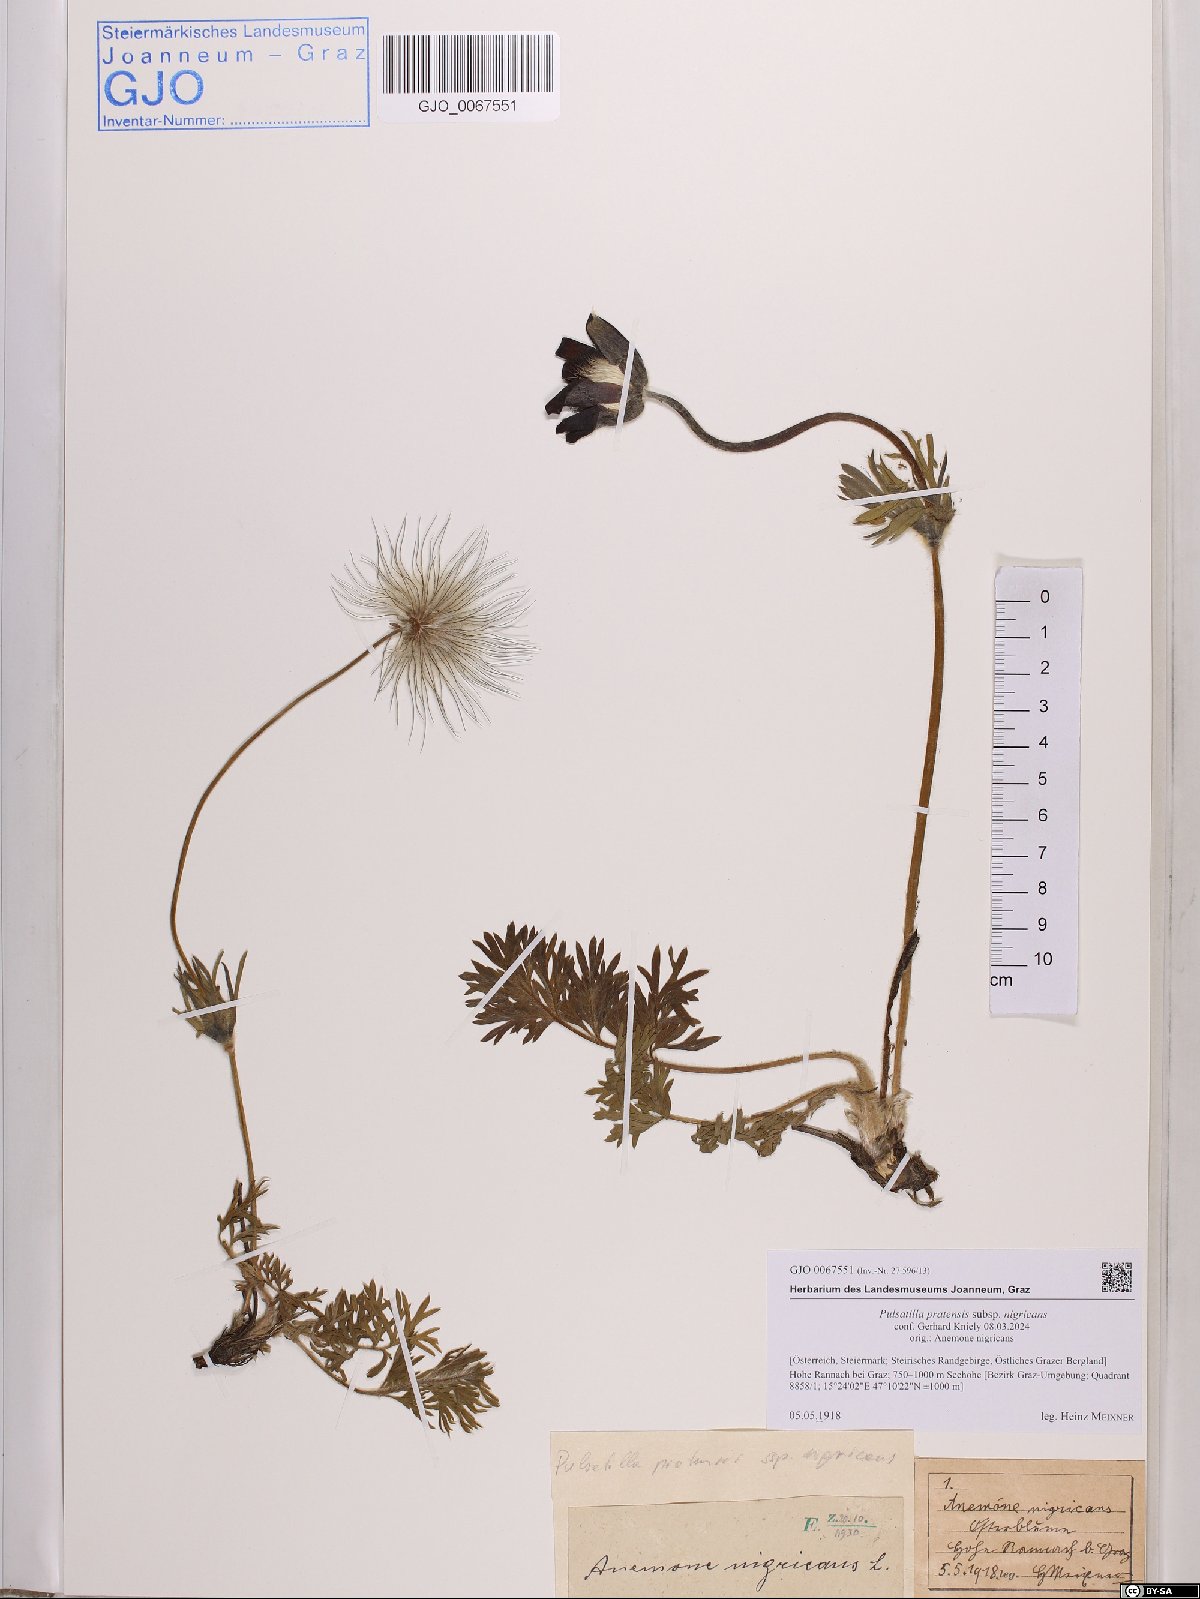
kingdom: Plantae
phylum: Tracheophyta
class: Magnoliopsida
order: Ranunculales
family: Ranunculaceae
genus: Pulsatilla
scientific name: Pulsatilla pratensis
